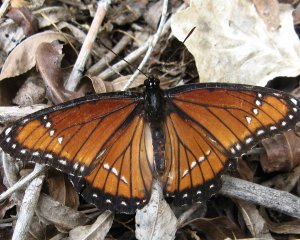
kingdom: Animalia
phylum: Arthropoda
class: Insecta
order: Lepidoptera
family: Nymphalidae
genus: Limenitis
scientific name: Limenitis archippus
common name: Viceroy
